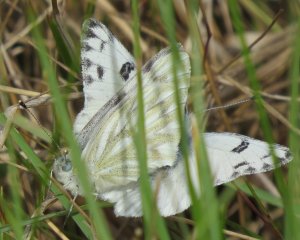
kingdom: Animalia
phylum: Arthropoda
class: Insecta
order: Lepidoptera
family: Pieridae
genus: Pontia
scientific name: Pontia protodice
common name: Checkered White
